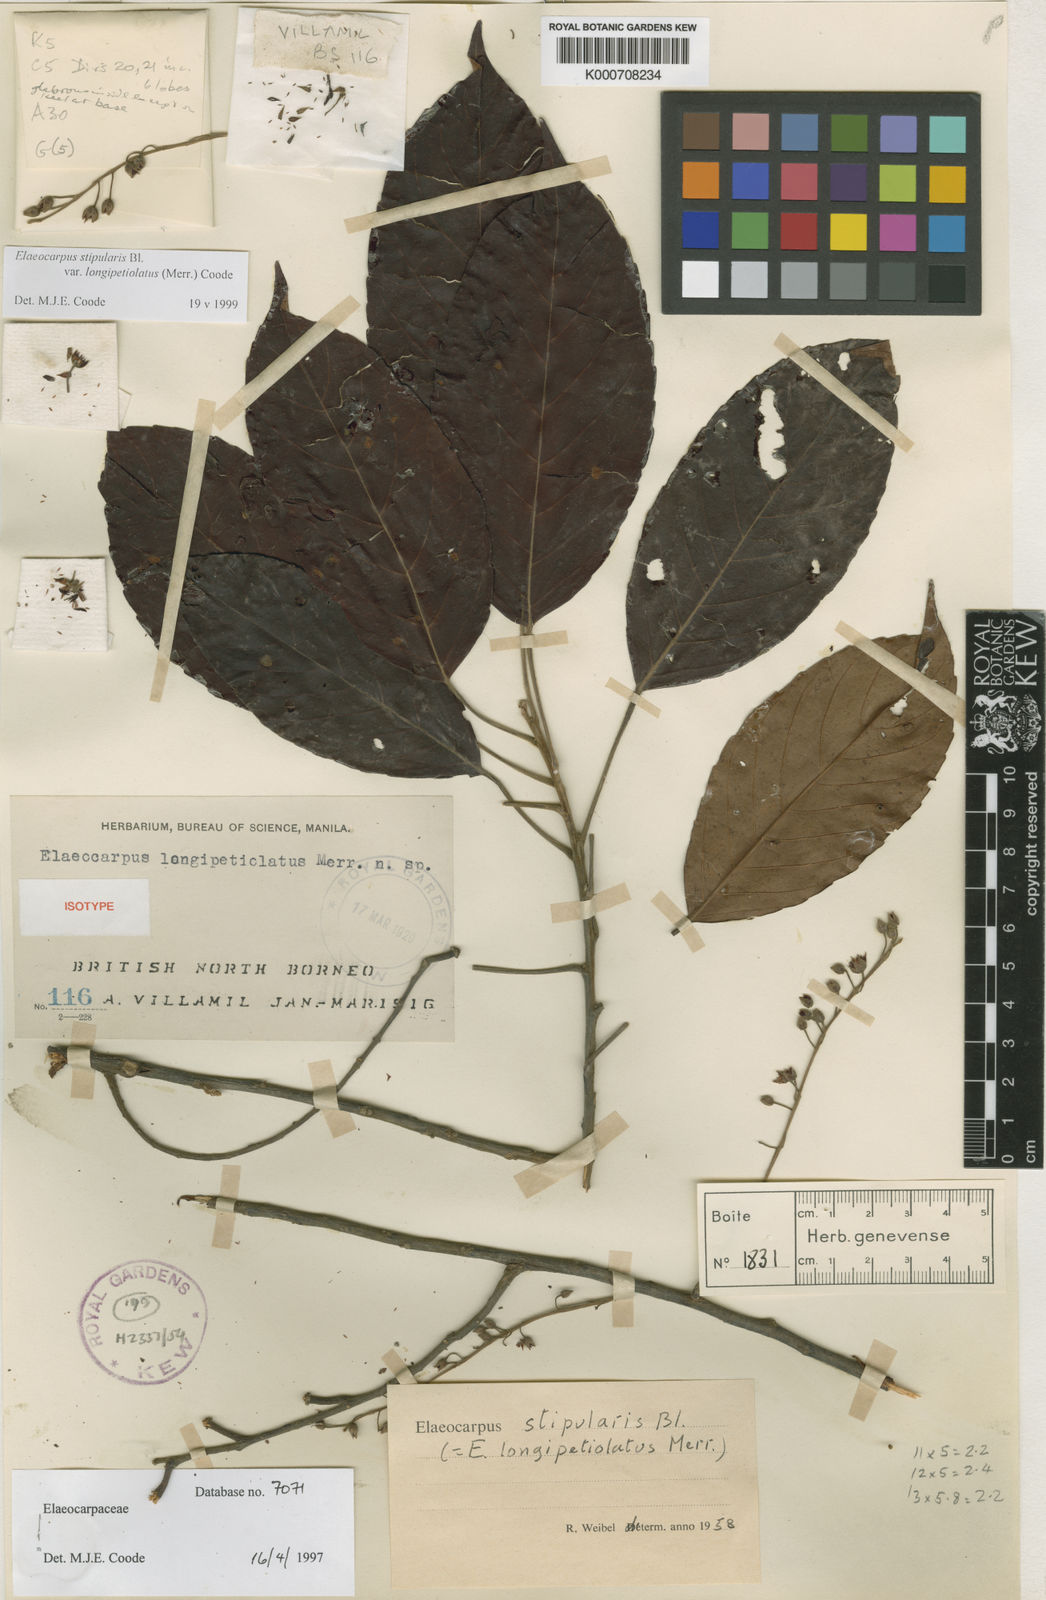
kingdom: Plantae
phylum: Tracheophyta
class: Magnoliopsida
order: Oxalidales
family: Elaeocarpaceae
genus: Elaeocarpus
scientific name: Elaeocarpus stipularis
